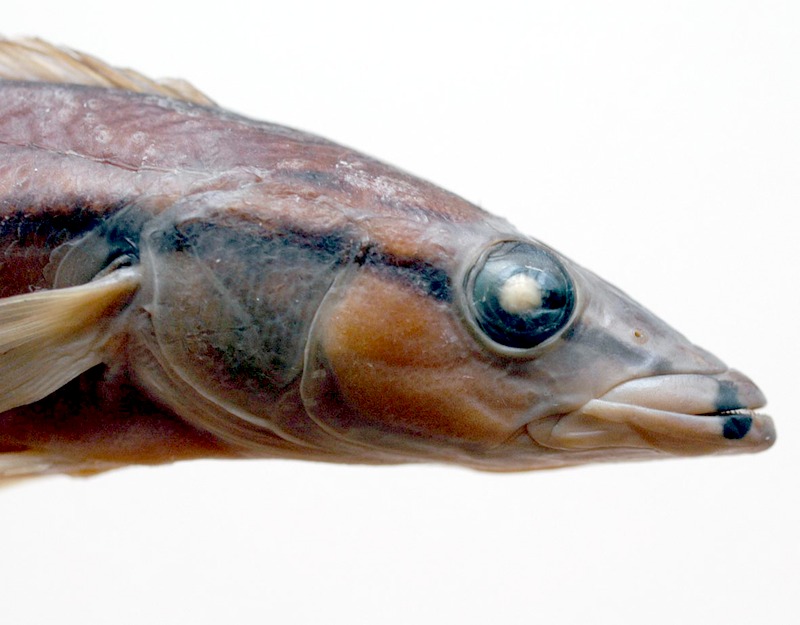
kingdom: Animalia
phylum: Chordata
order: Perciformes
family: Cichlidae
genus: Crenicichla
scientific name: Crenicichla celidochilus
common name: Pike cichlid
